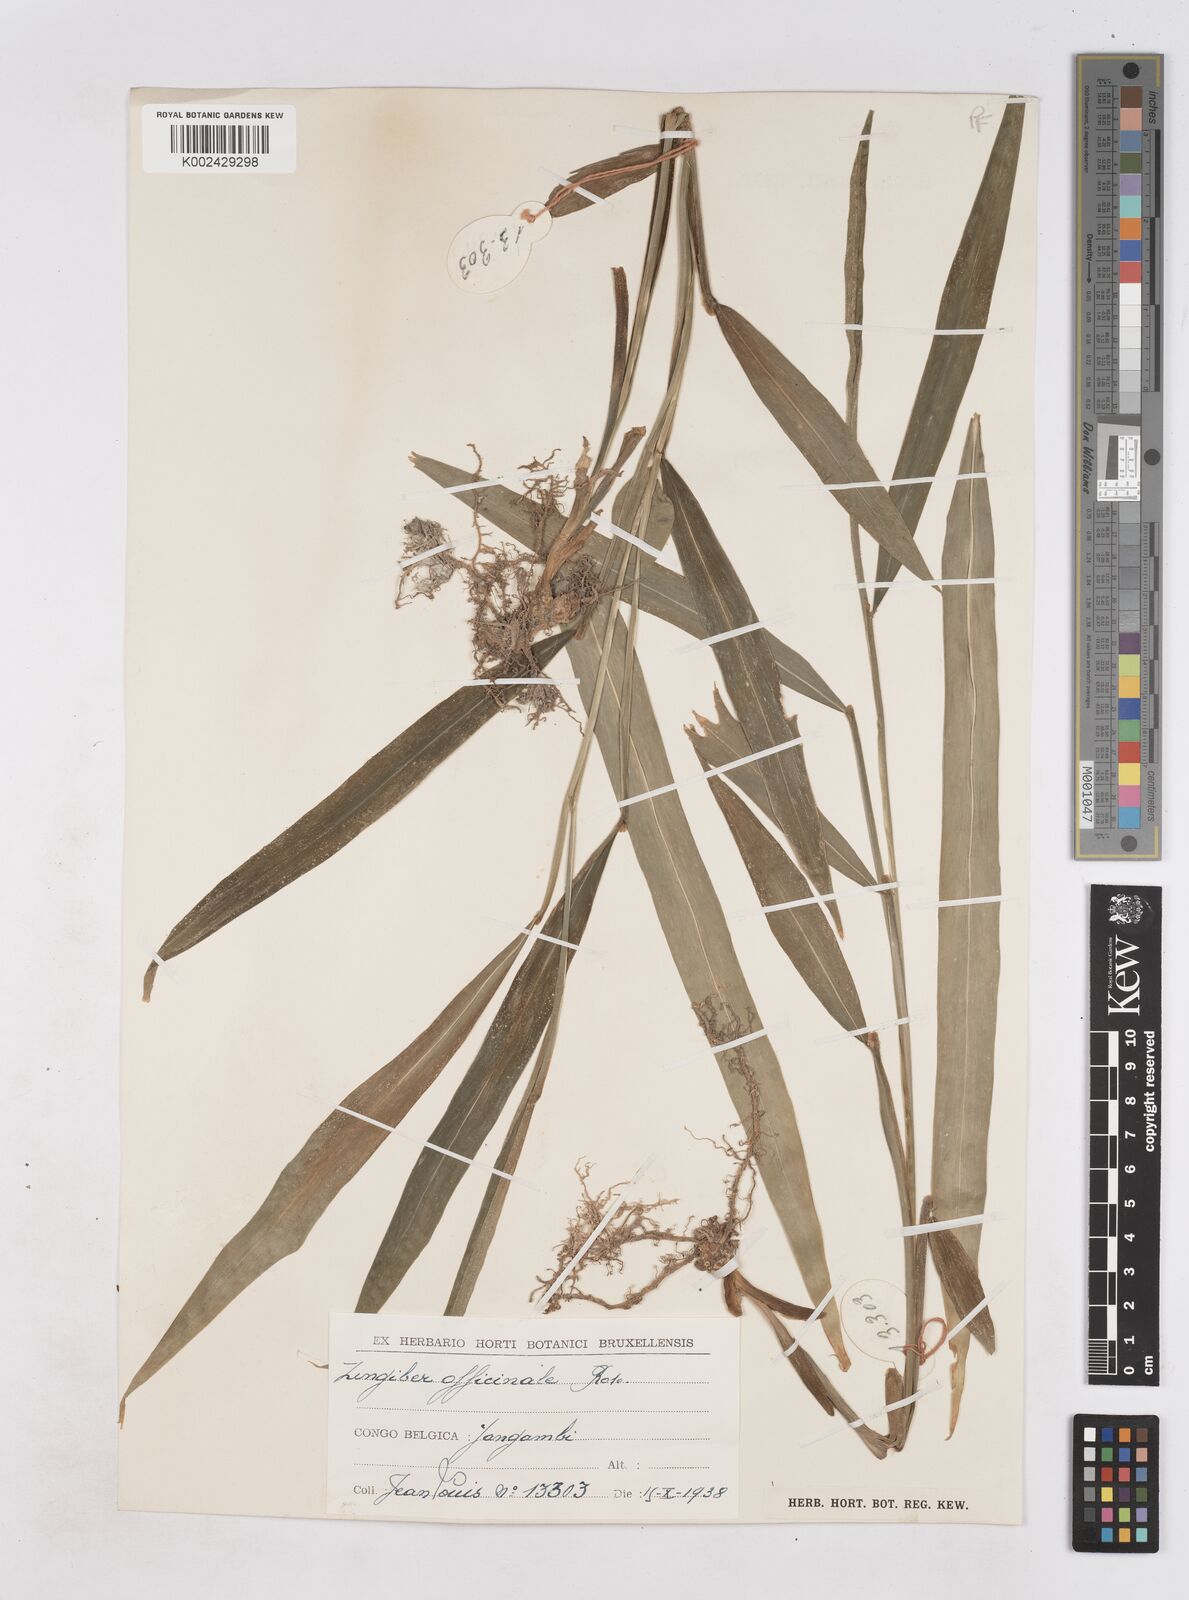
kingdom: Plantae
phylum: Tracheophyta
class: Liliopsida
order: Zingiberales
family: Zingiberaceae
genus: Zingiber
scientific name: Zingiber officinale
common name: Ginger
